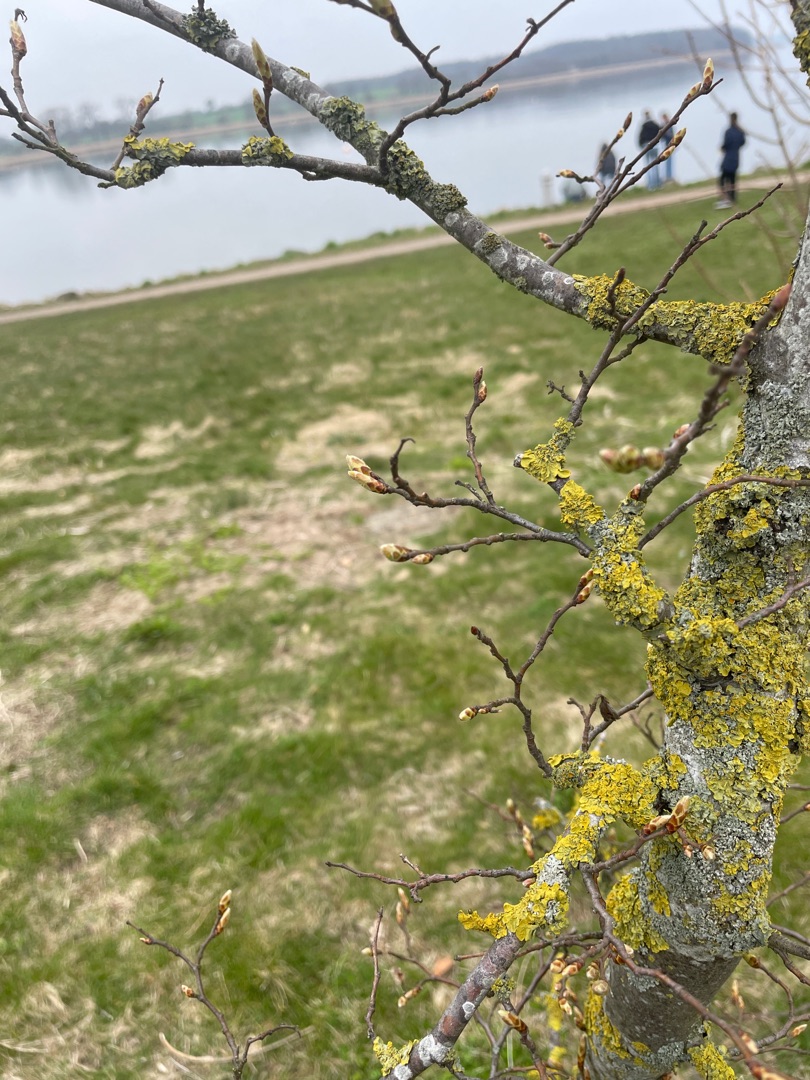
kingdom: Fungi
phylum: Ascomycota
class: Lecanoromycetes
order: Teloschistales
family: Teloschistaceae
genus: Xanthoria
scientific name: Xanthoria parietina
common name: Almindelig væggelav
